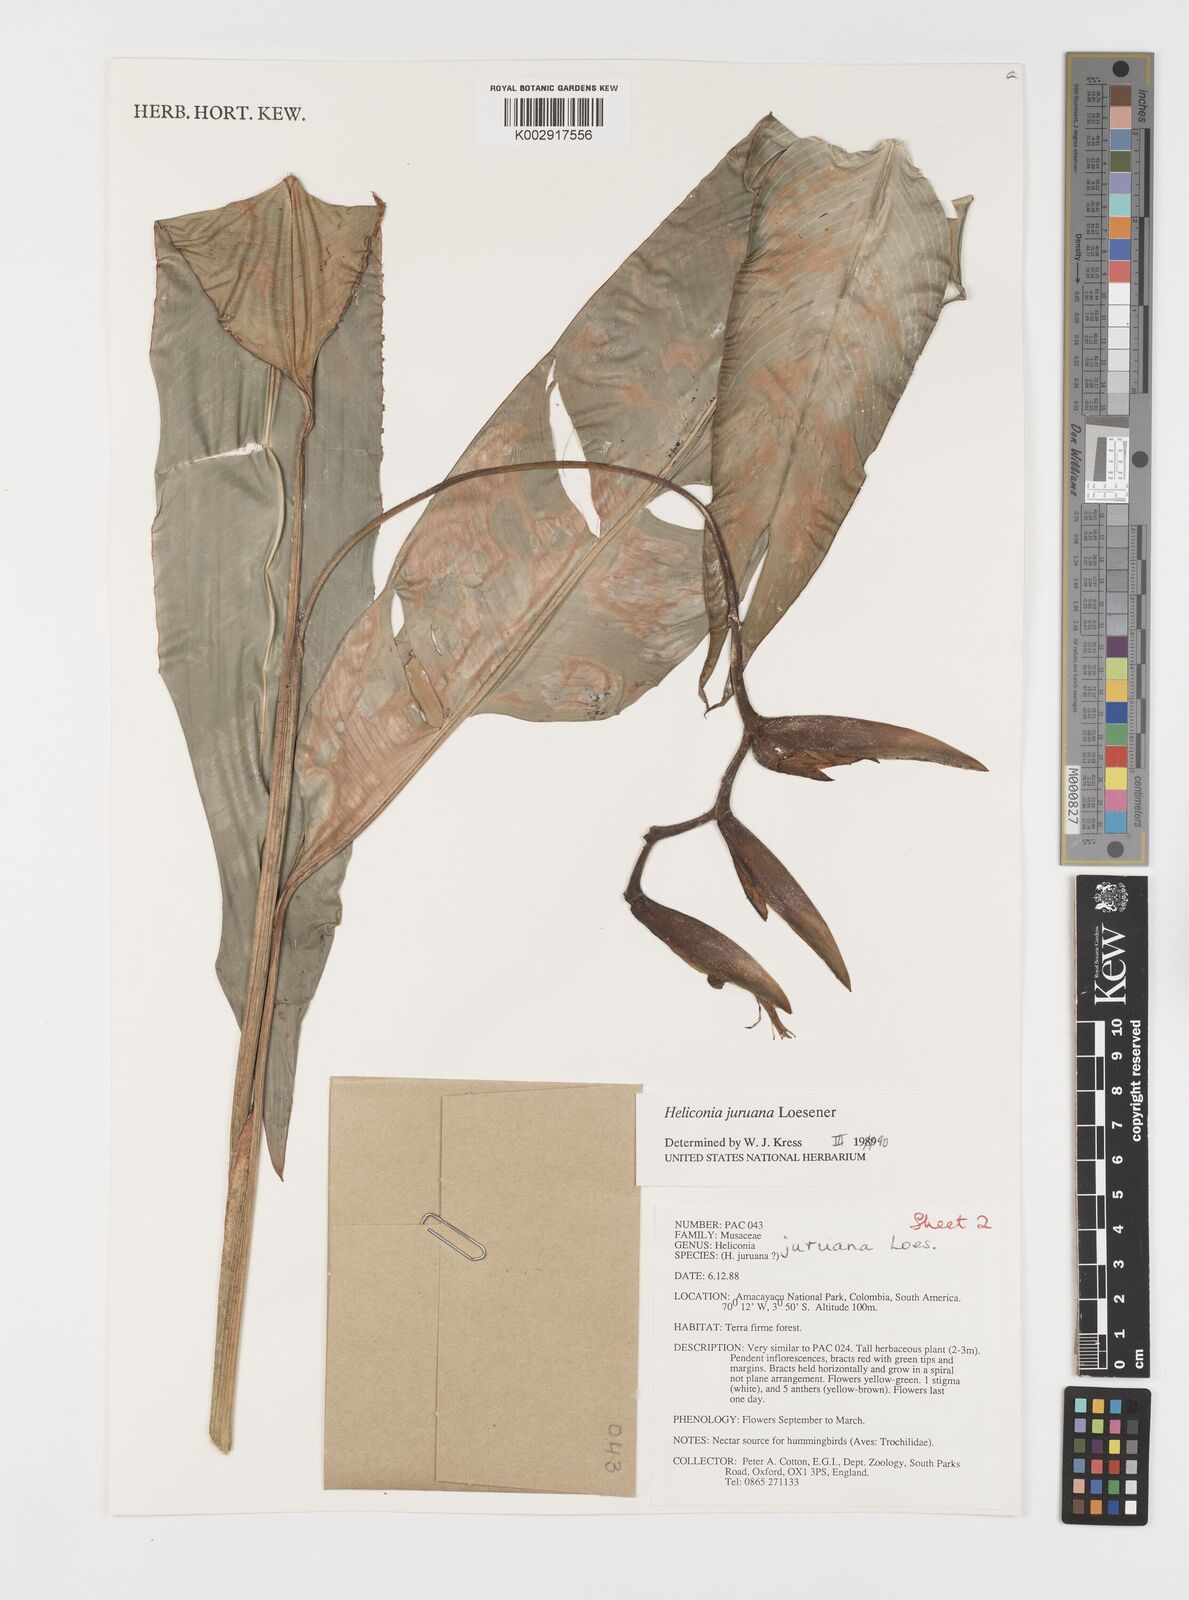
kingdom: Plantae
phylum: Tracheophyta
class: Liliopsida
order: Zingiberales
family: Heliconiaceae
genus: Heliconia
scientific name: Heliconia juruana
